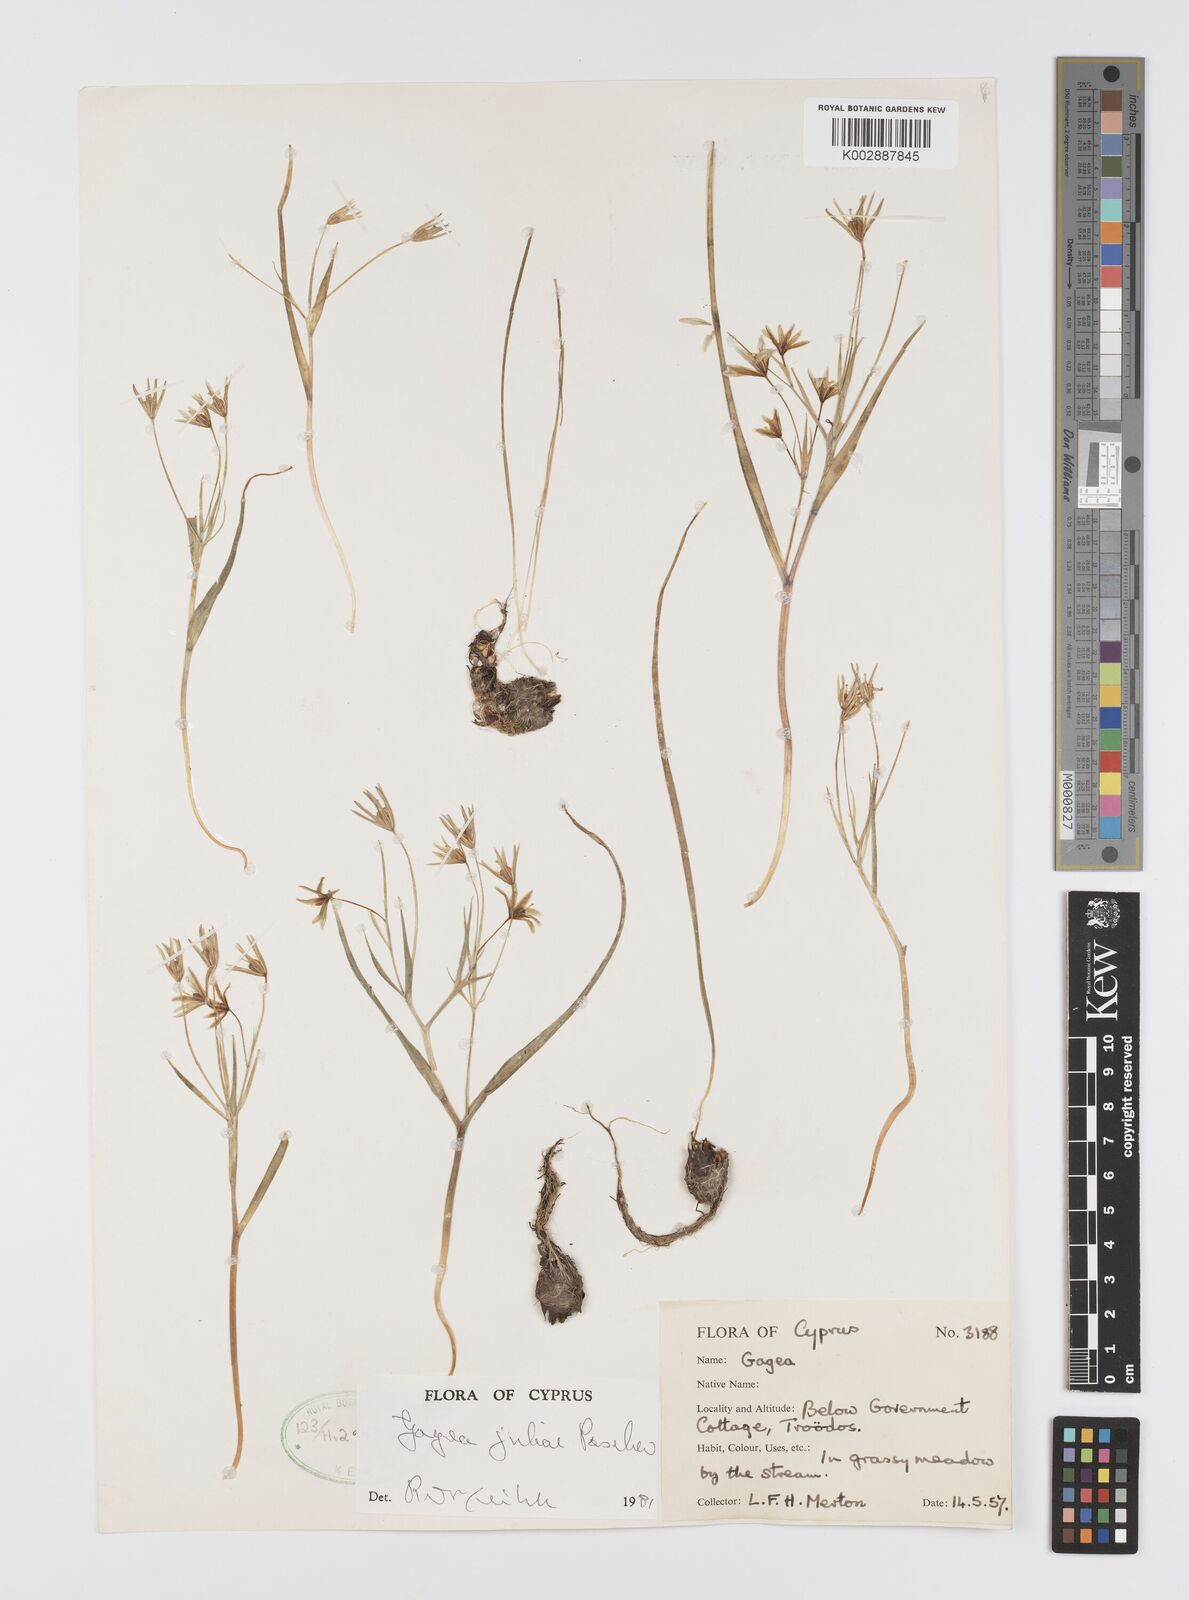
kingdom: Plantae
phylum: Tracheophyta
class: Liliopsida
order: Liliales
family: Liliaceae
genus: Gagea
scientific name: Gagea juliae
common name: Julia’s gagea
